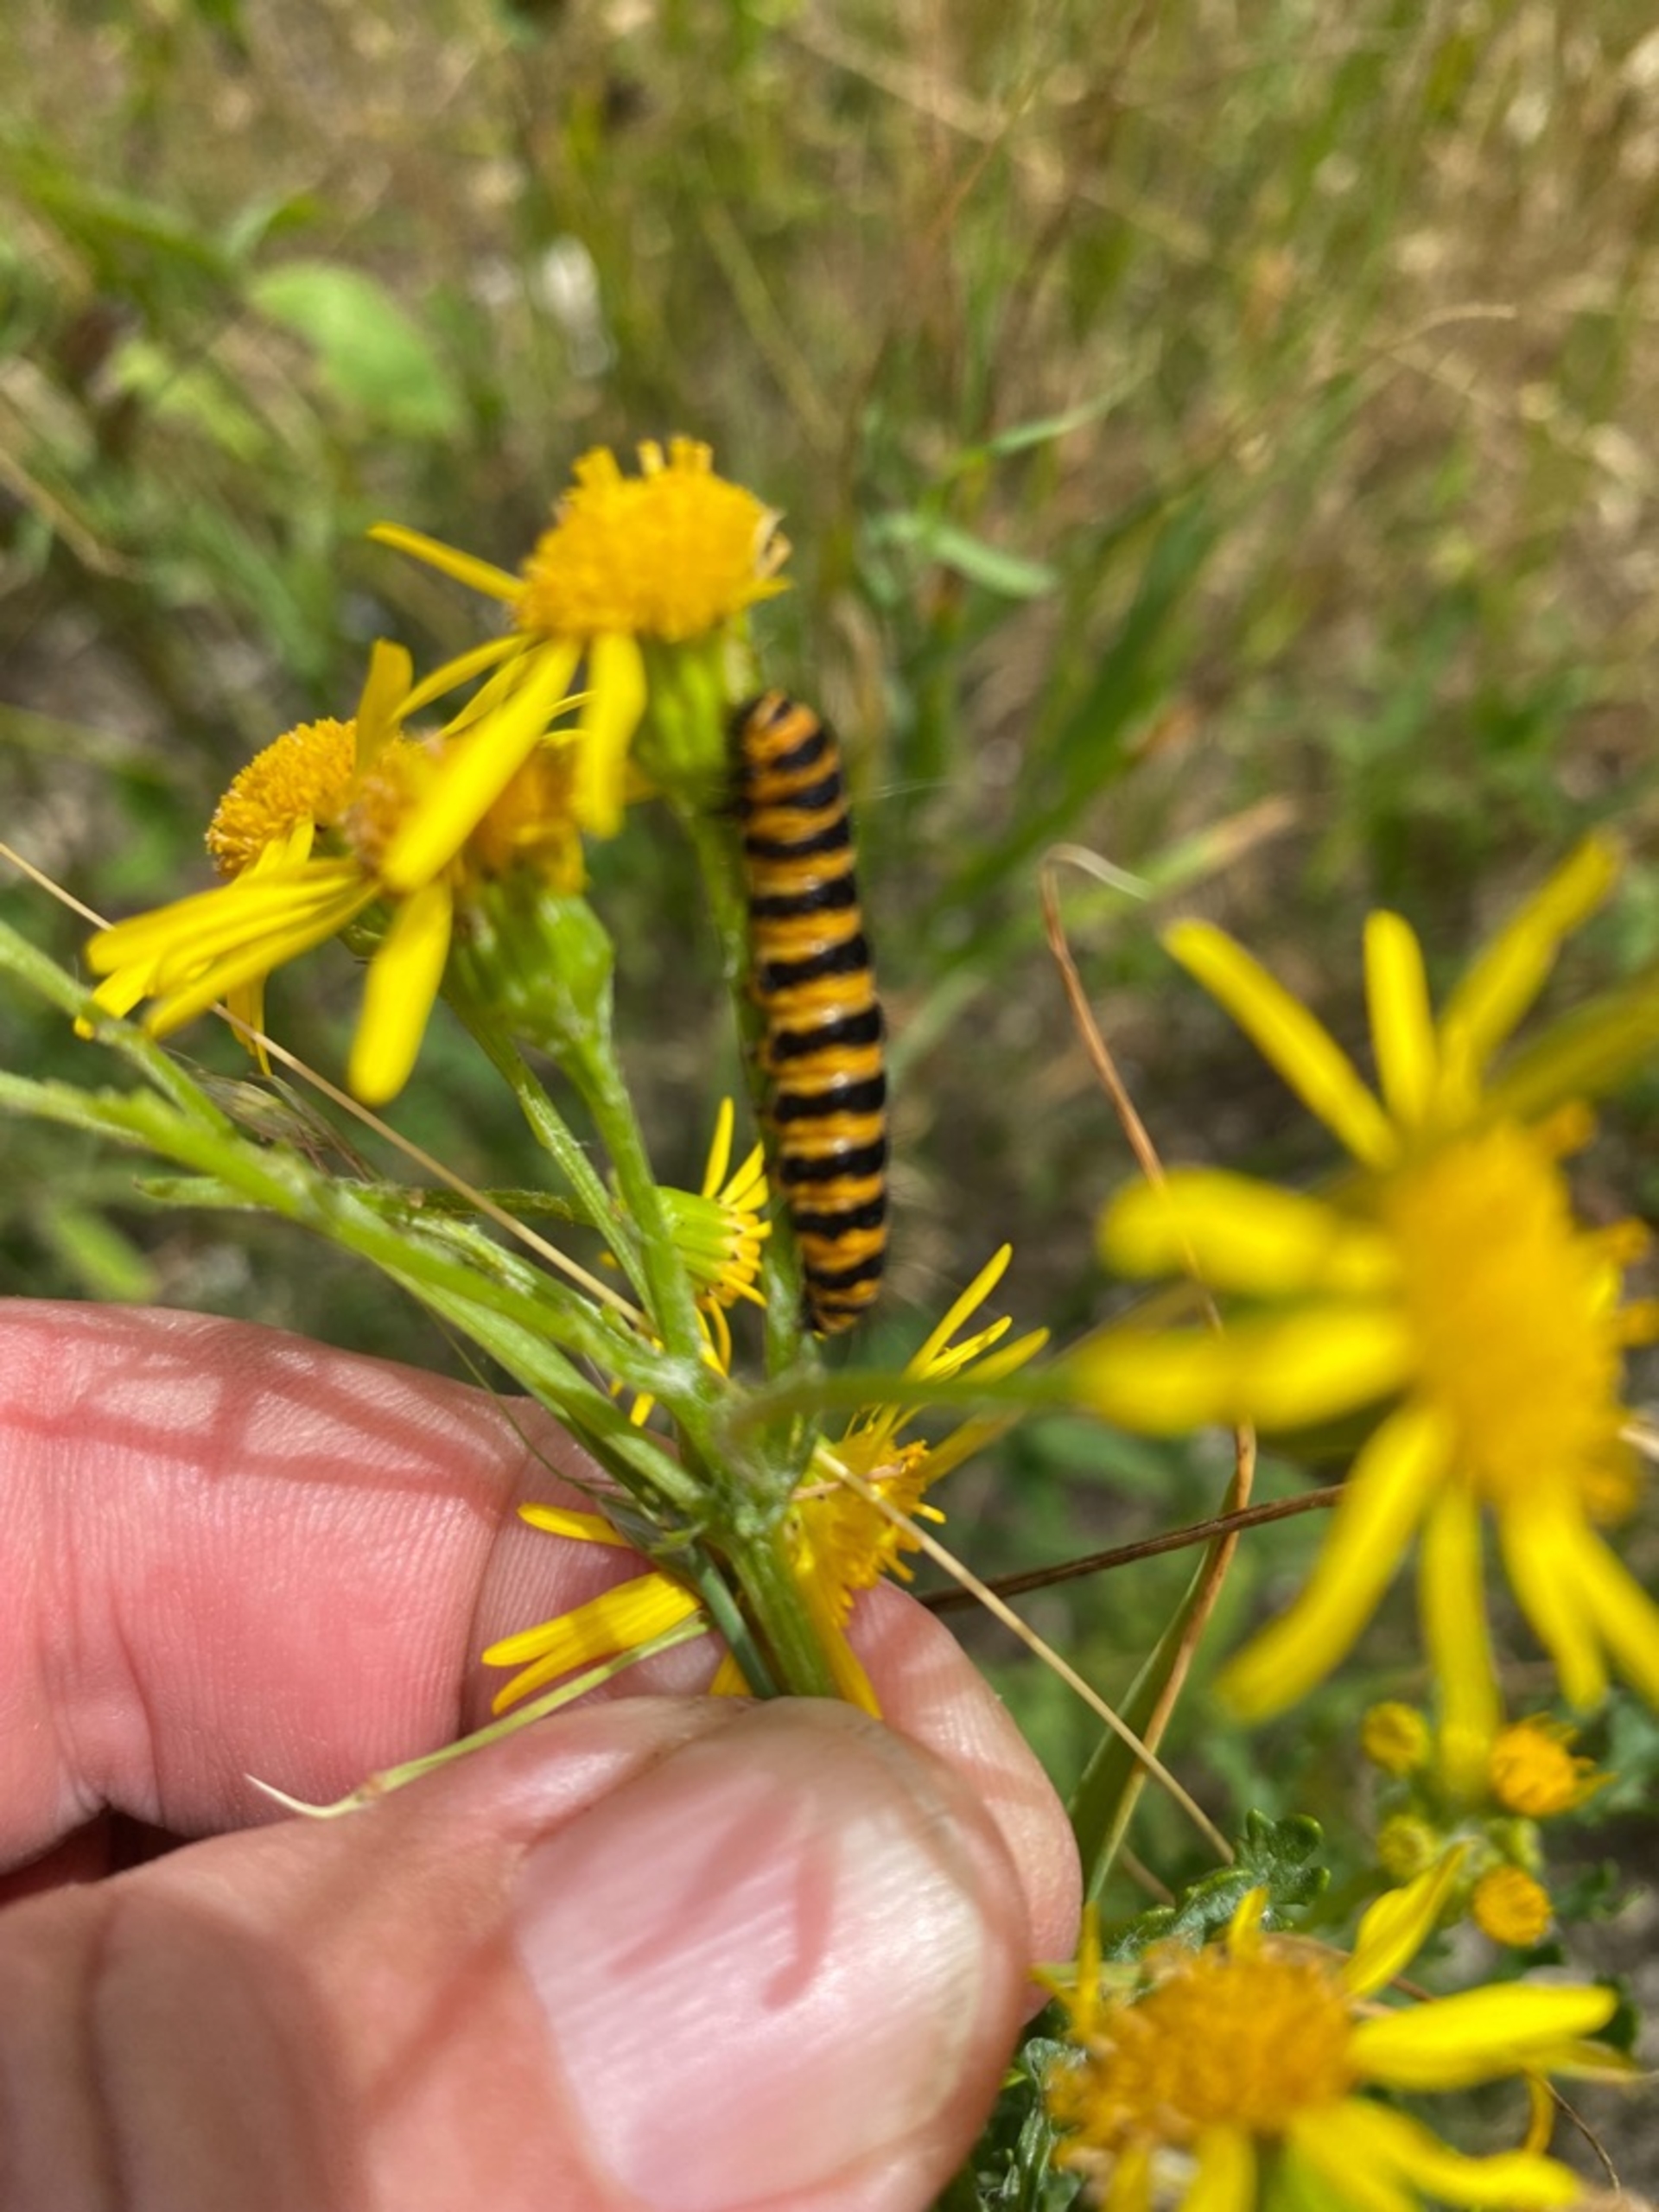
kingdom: Animalia
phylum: Arthropoda
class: Insecta
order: Lepidoptera
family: Erebidae
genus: Tyria
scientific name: Tyria jacobaeae
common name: Blodplet
